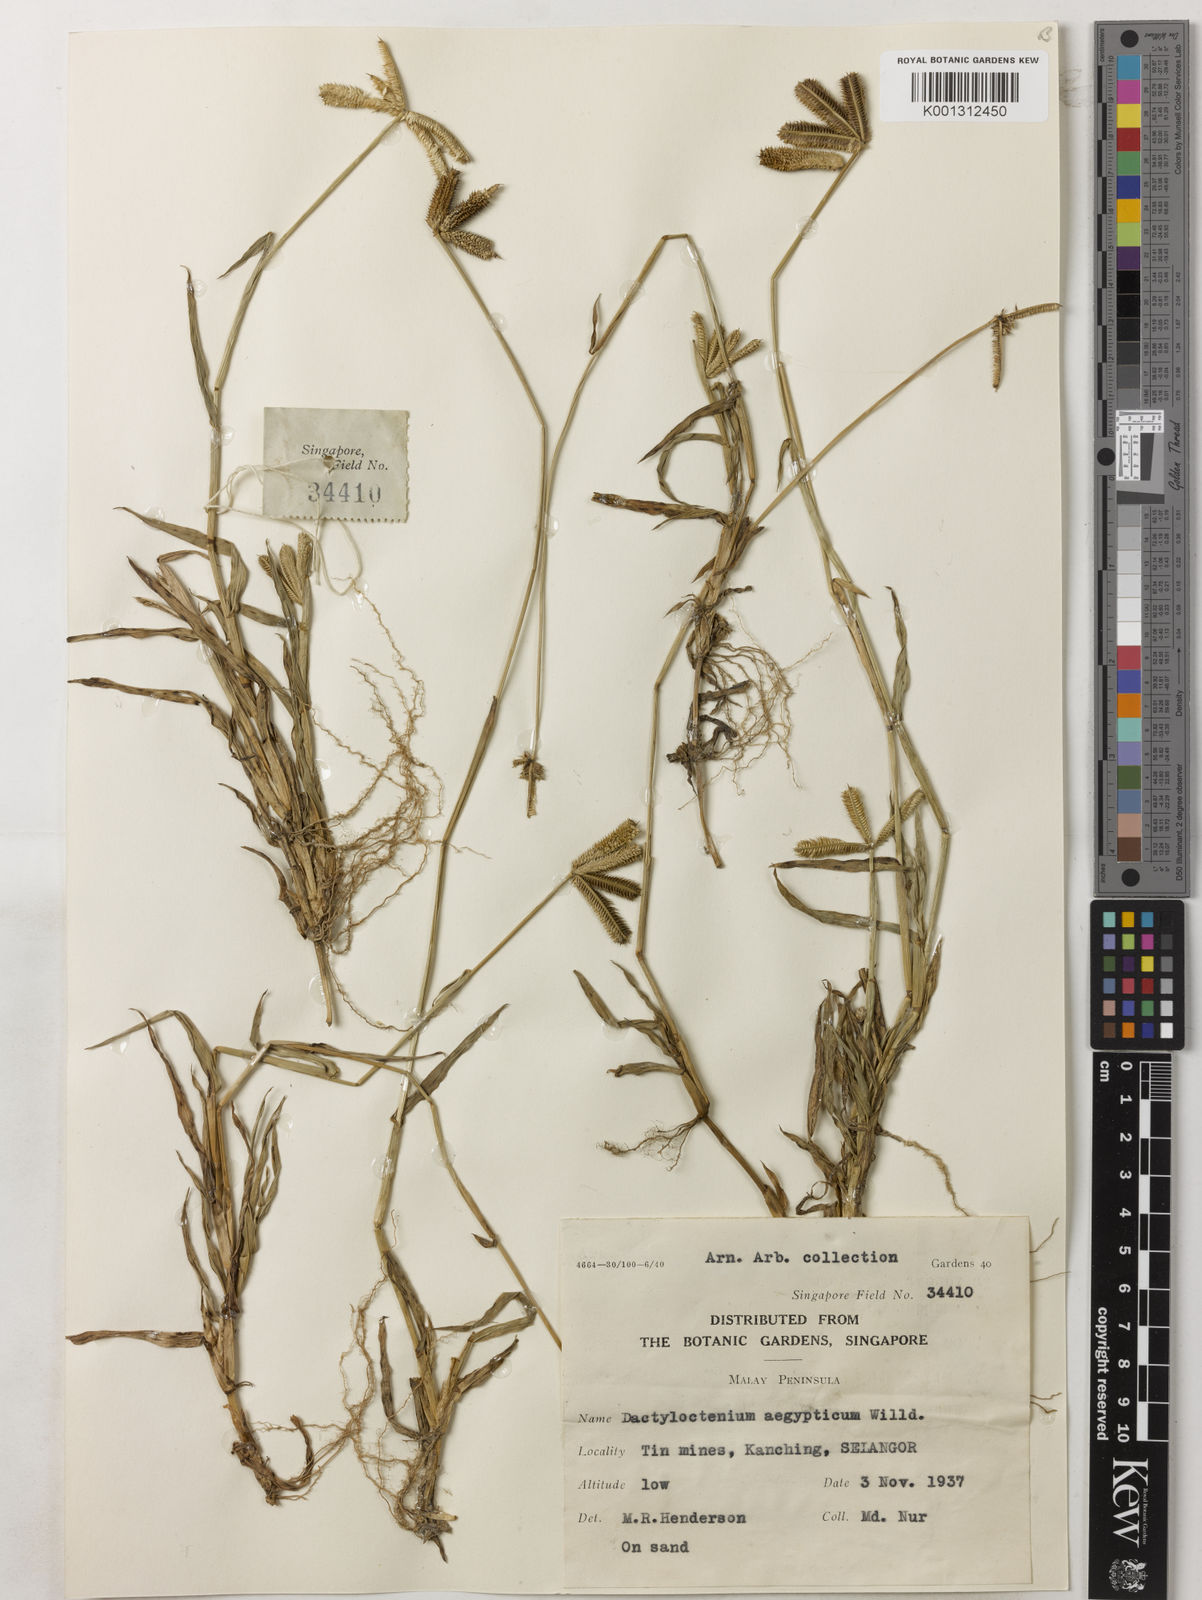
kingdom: Plantae
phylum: Tracheophyta
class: Liliopsida
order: Poales
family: Poaceae
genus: Dactyloctenium
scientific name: Dactyloctenium aegyptium
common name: Egyptian grass
